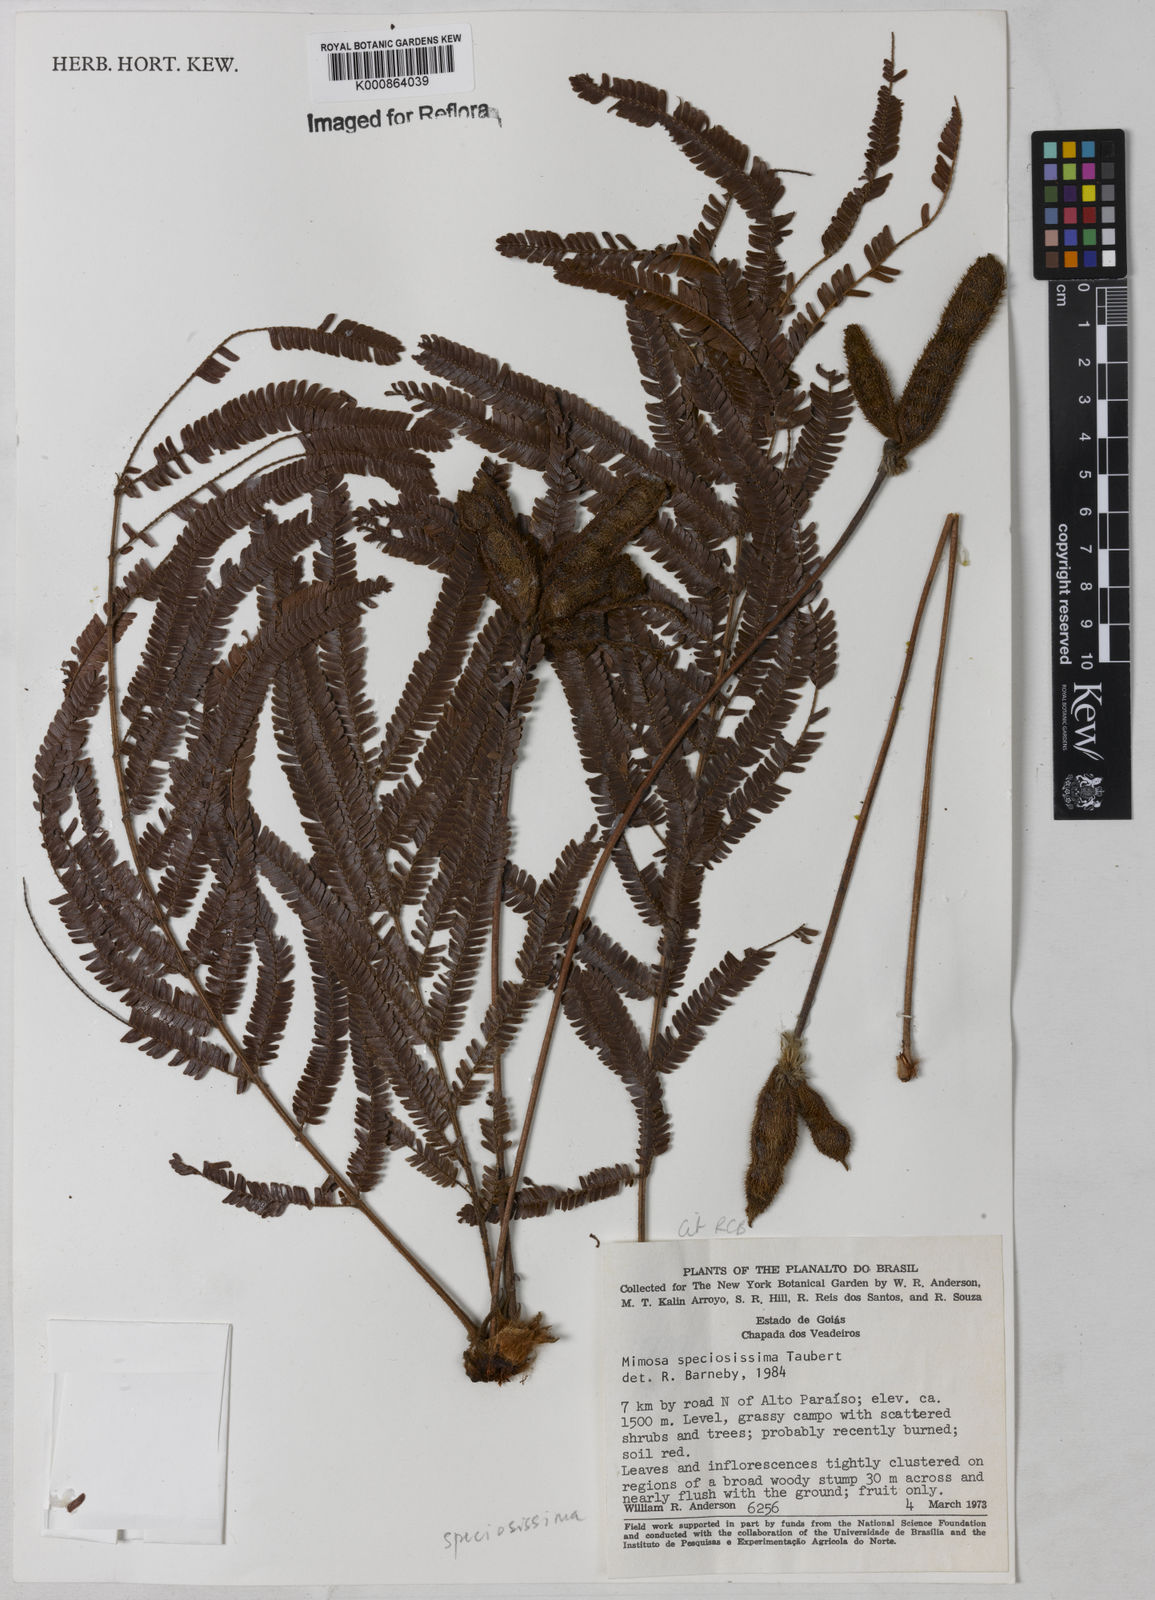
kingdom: Plantae
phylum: Tracheophyta
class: Magnoliopsida
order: Fabales
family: Fabaceae
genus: Mimosa
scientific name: Mimosa speciosissima
